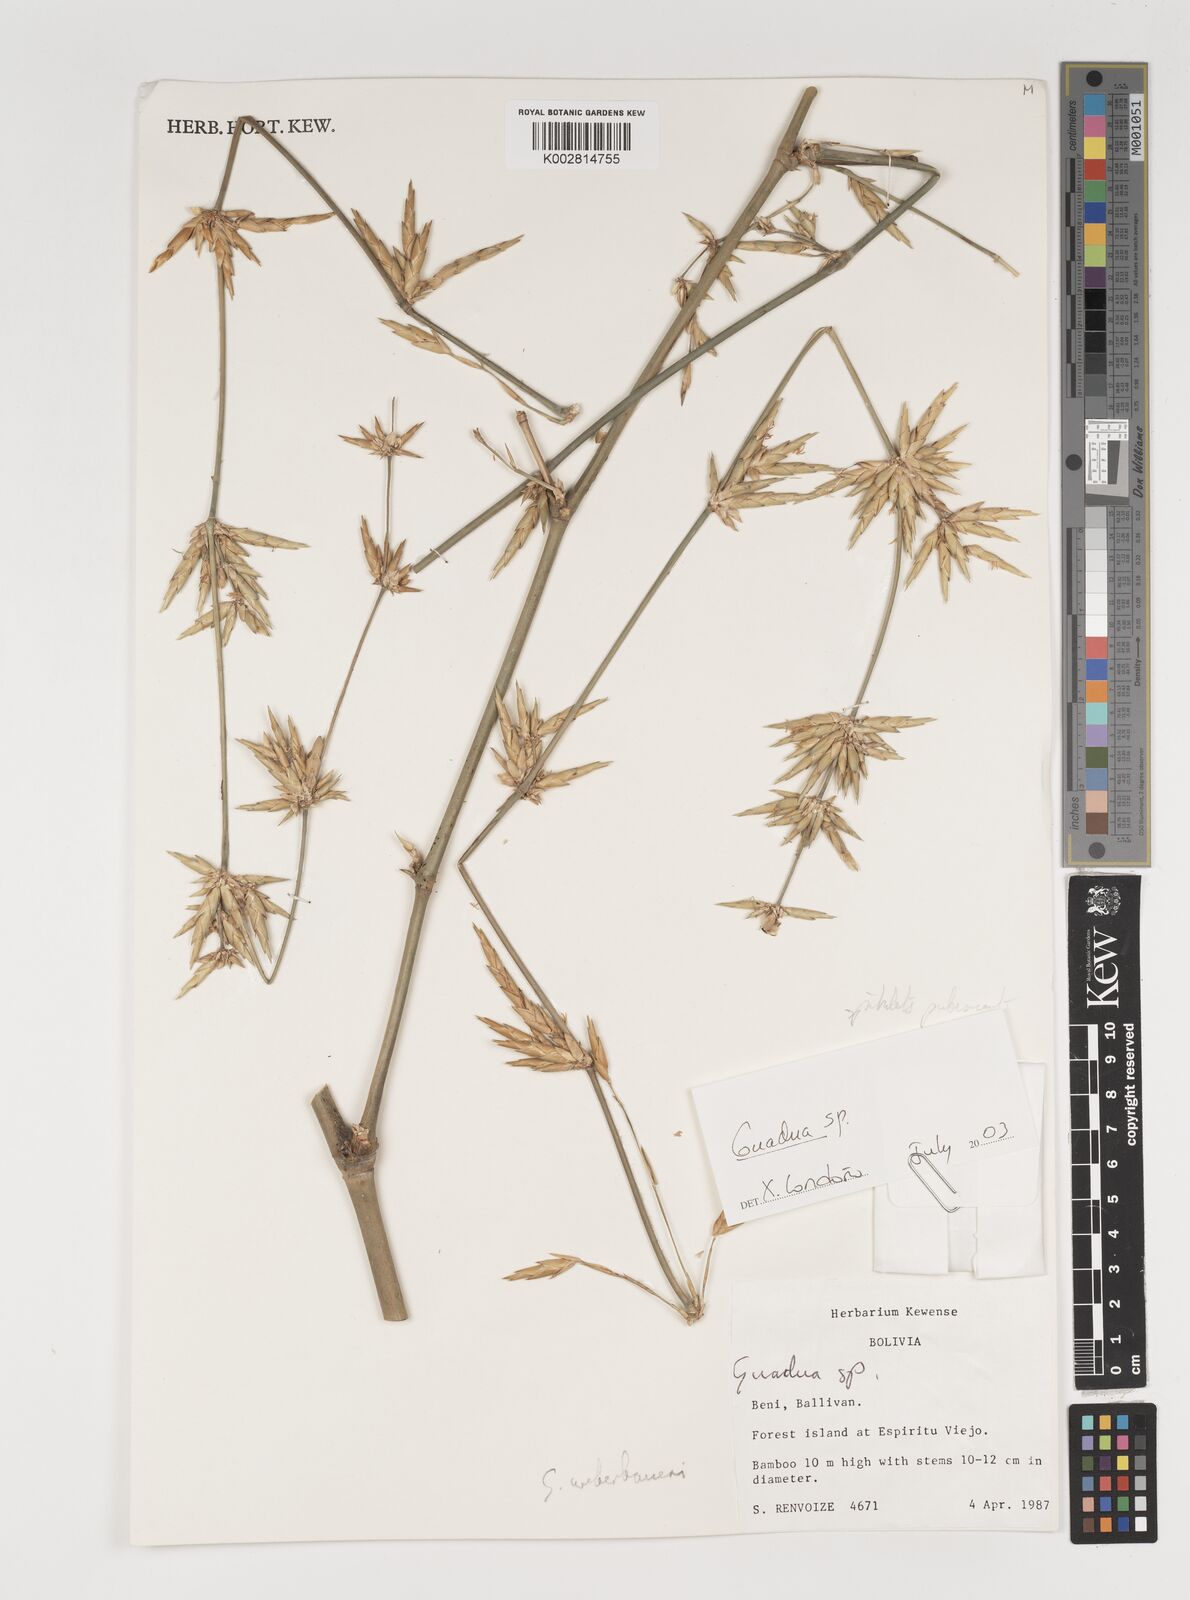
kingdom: Plantae
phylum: Tracheophyta
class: Liliopsida
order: Poales
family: Poaceae
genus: Guadua
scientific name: Guadua
